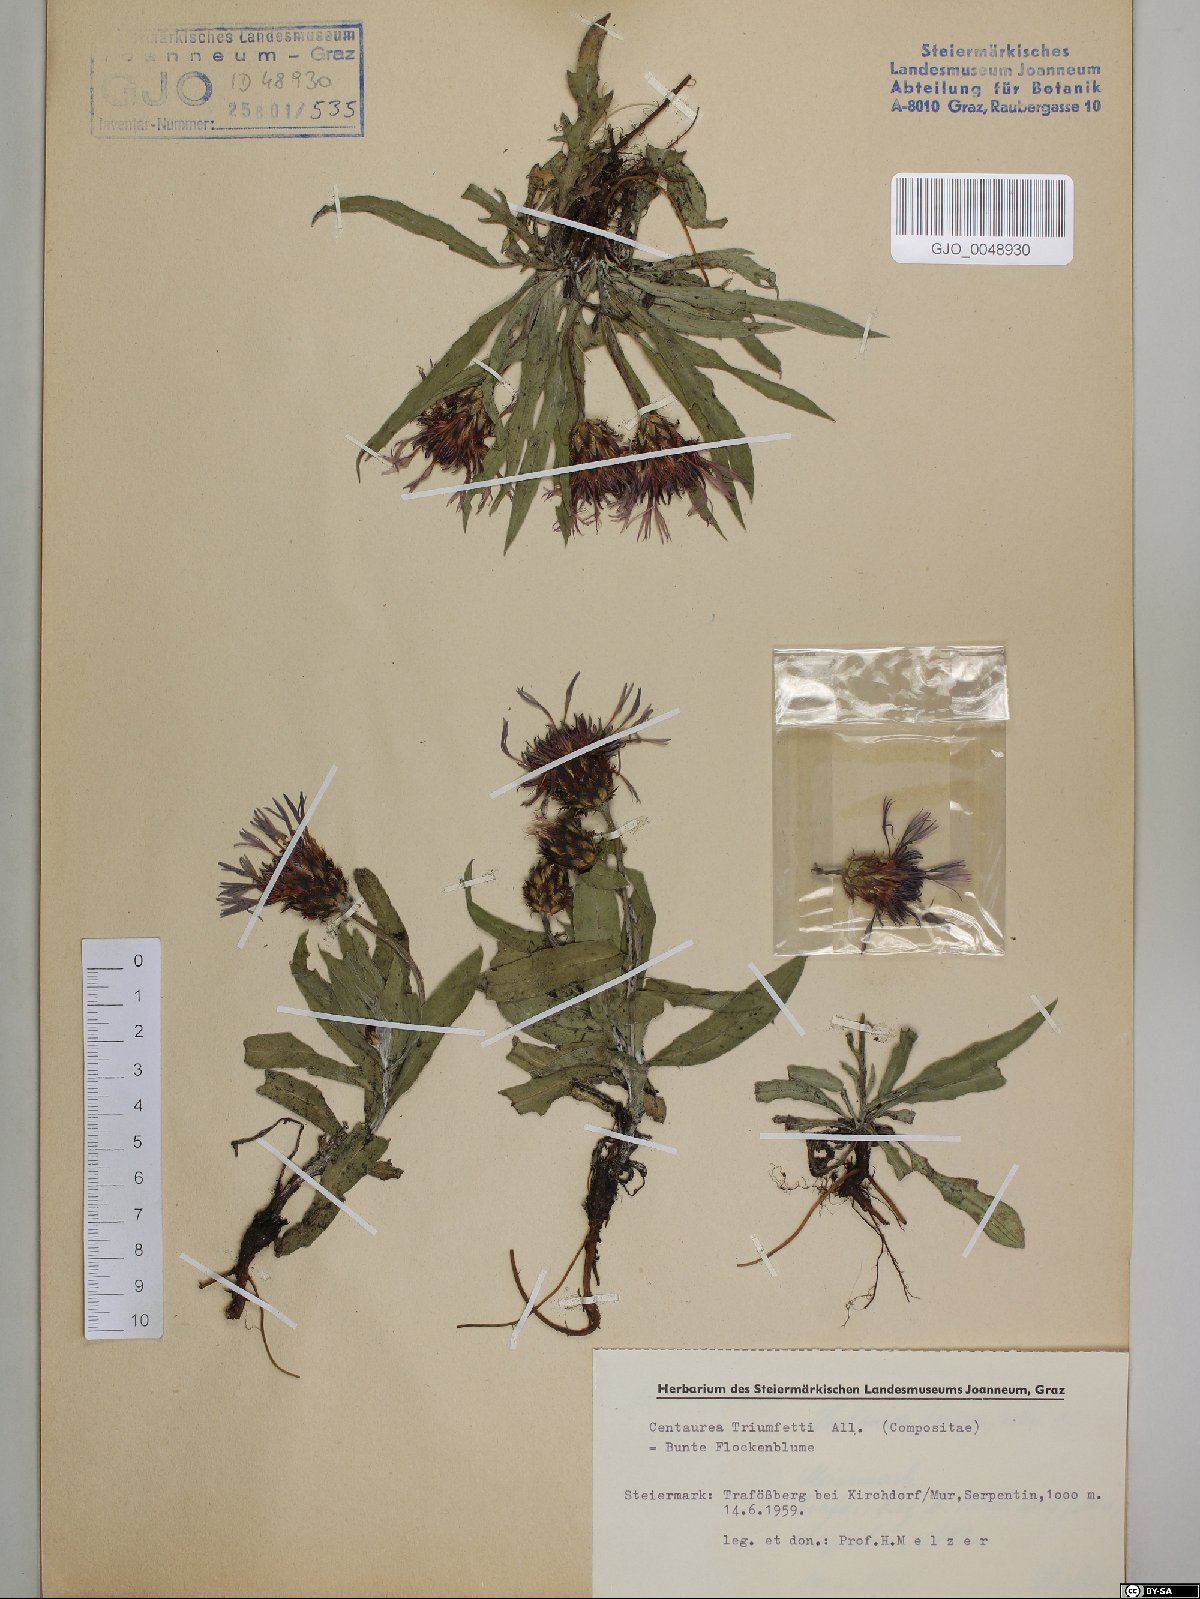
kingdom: Plantae
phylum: Tracheophyta
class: Magnoliopsida
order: Asterales
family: Asteraceae
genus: Centaurea
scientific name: Centaurea triumfettii
